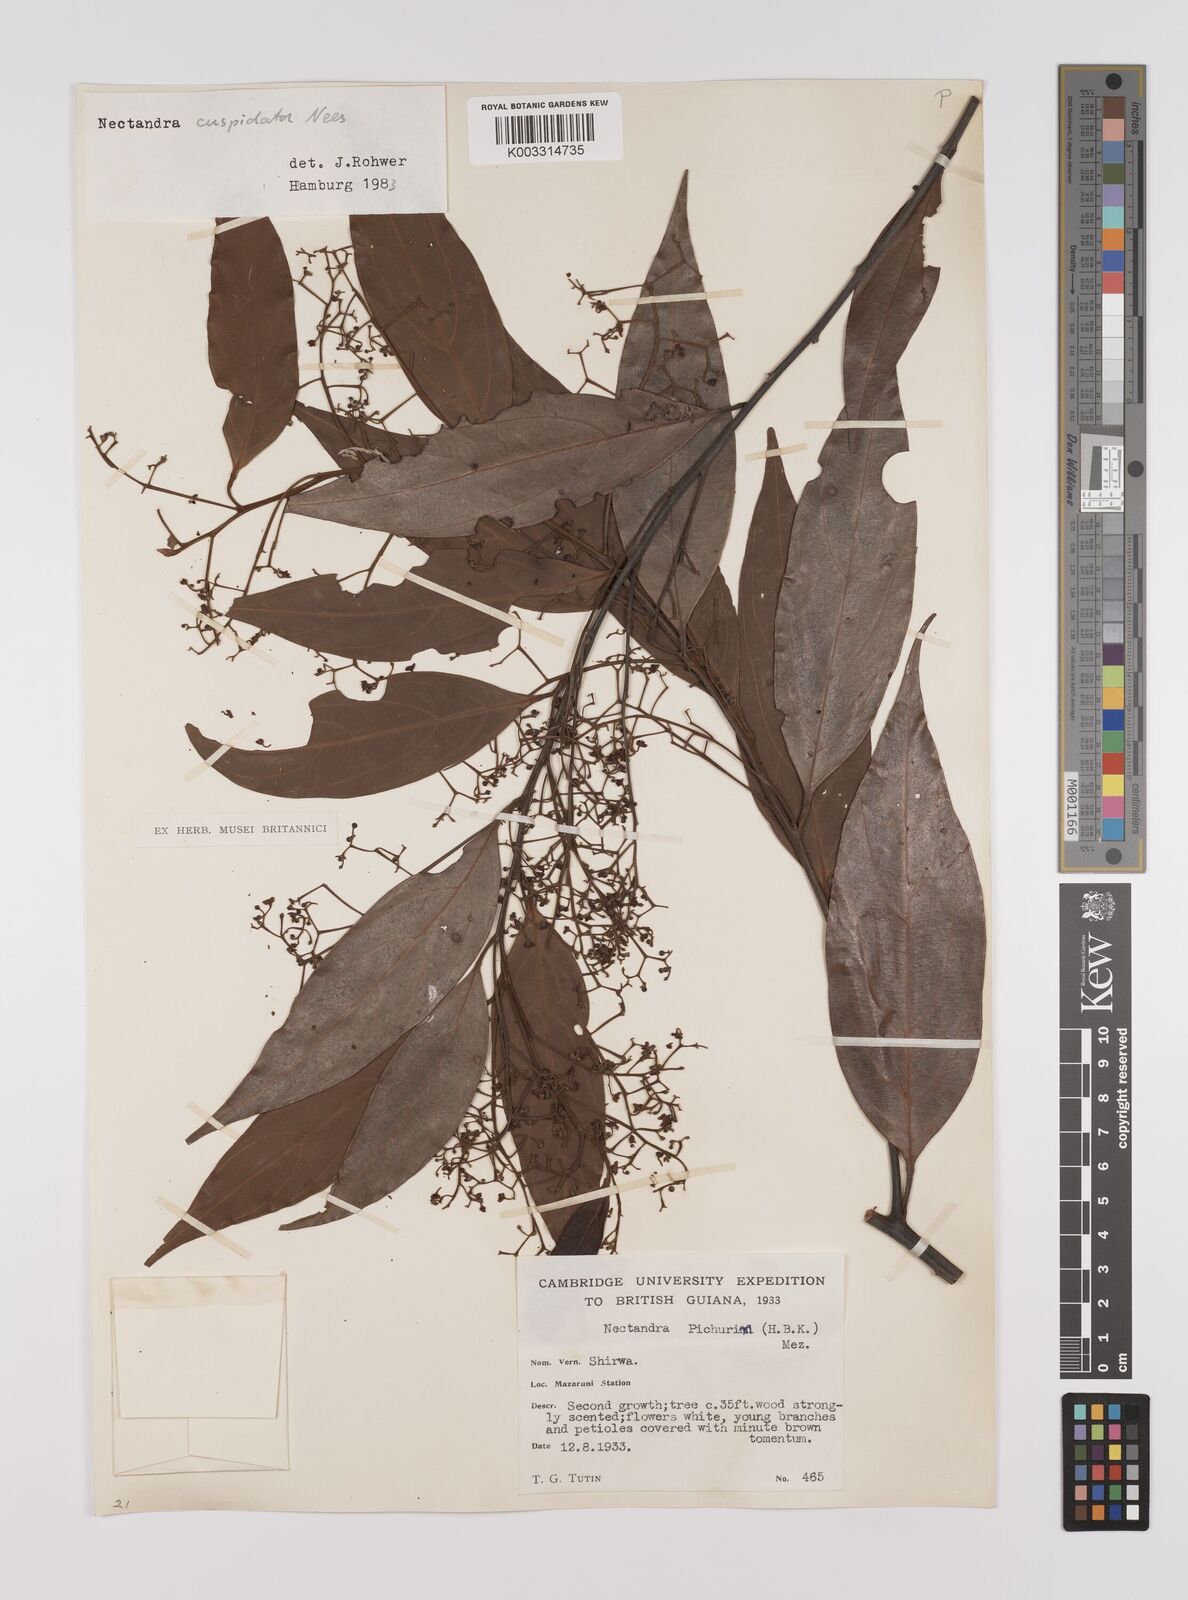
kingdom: Plantae
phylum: Tracheophyta
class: Magnoliopsida
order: Laurales
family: Lauraceae
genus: Nectandra
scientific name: Nectandra cuspidata
